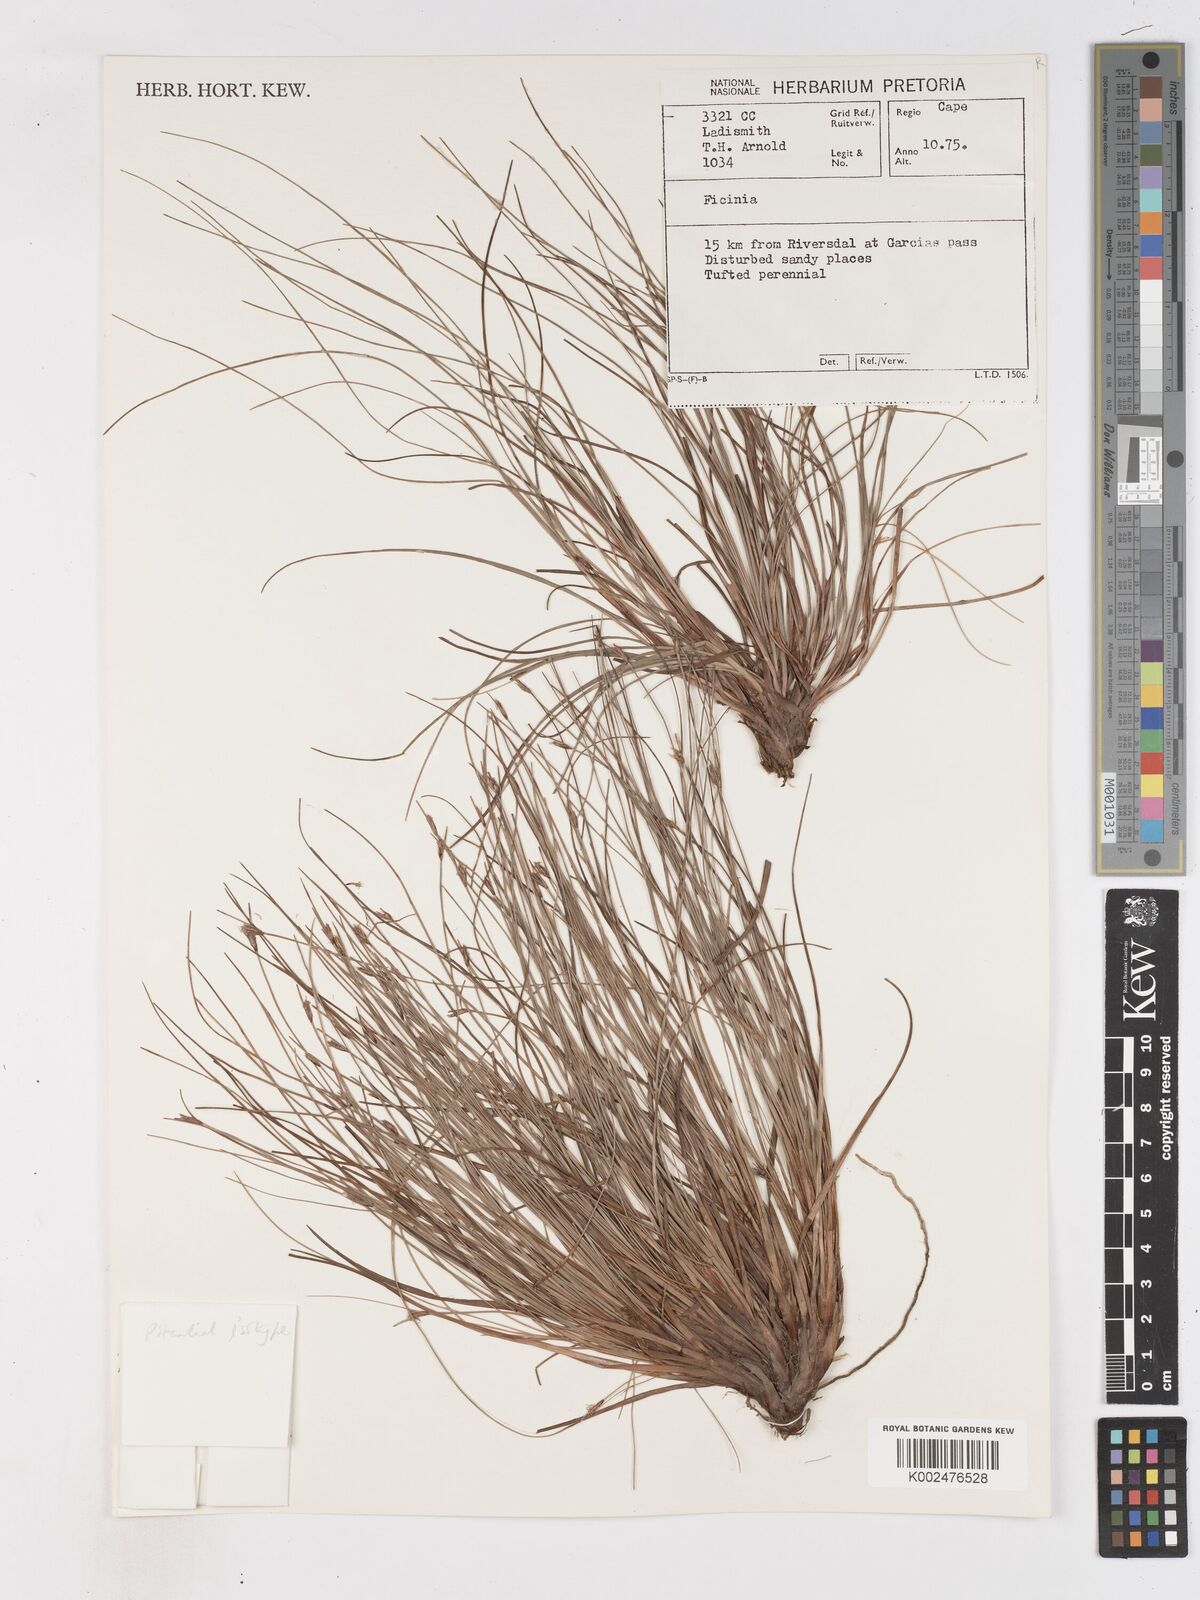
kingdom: Plantae
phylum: Tracheophyta
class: Liliopsida
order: Poales
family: Cyperaceae
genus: Ficinia
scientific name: Ficinia acuminata
